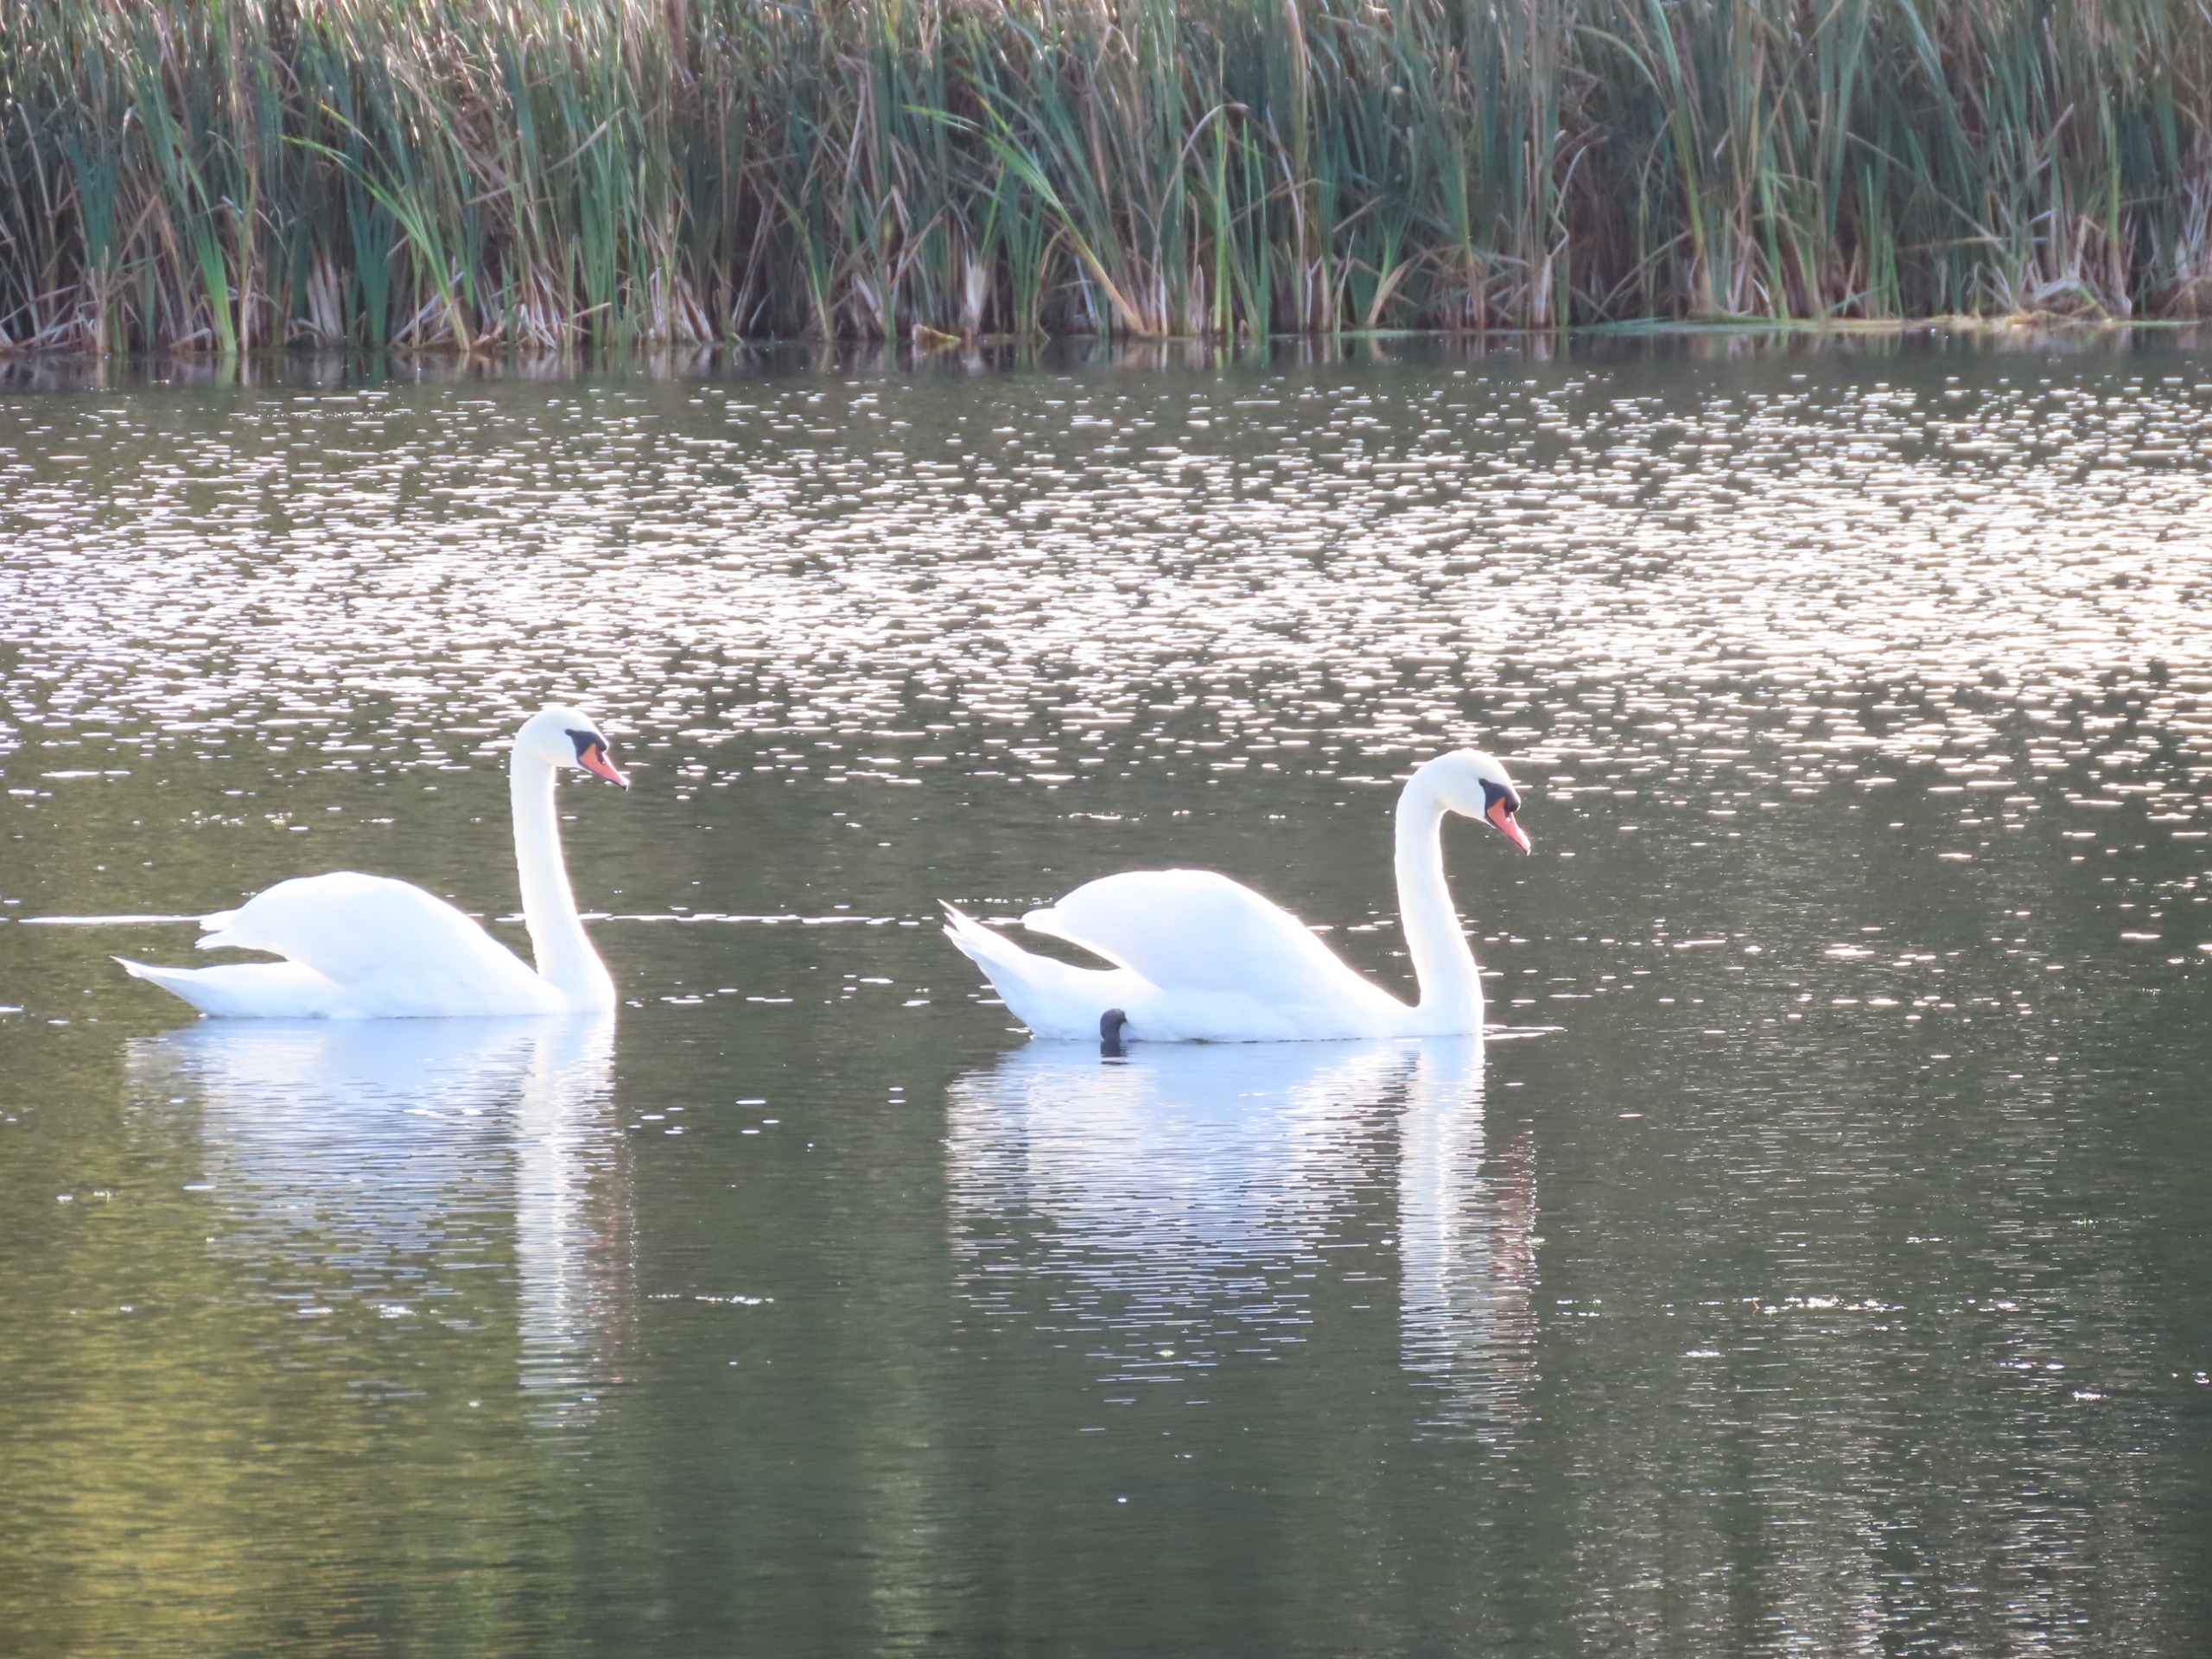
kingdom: Animalia
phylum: Chordata
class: Aves
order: Anseriformes
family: Anatidae
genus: Cygnus
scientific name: Cygnus olor
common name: Knopsvane
